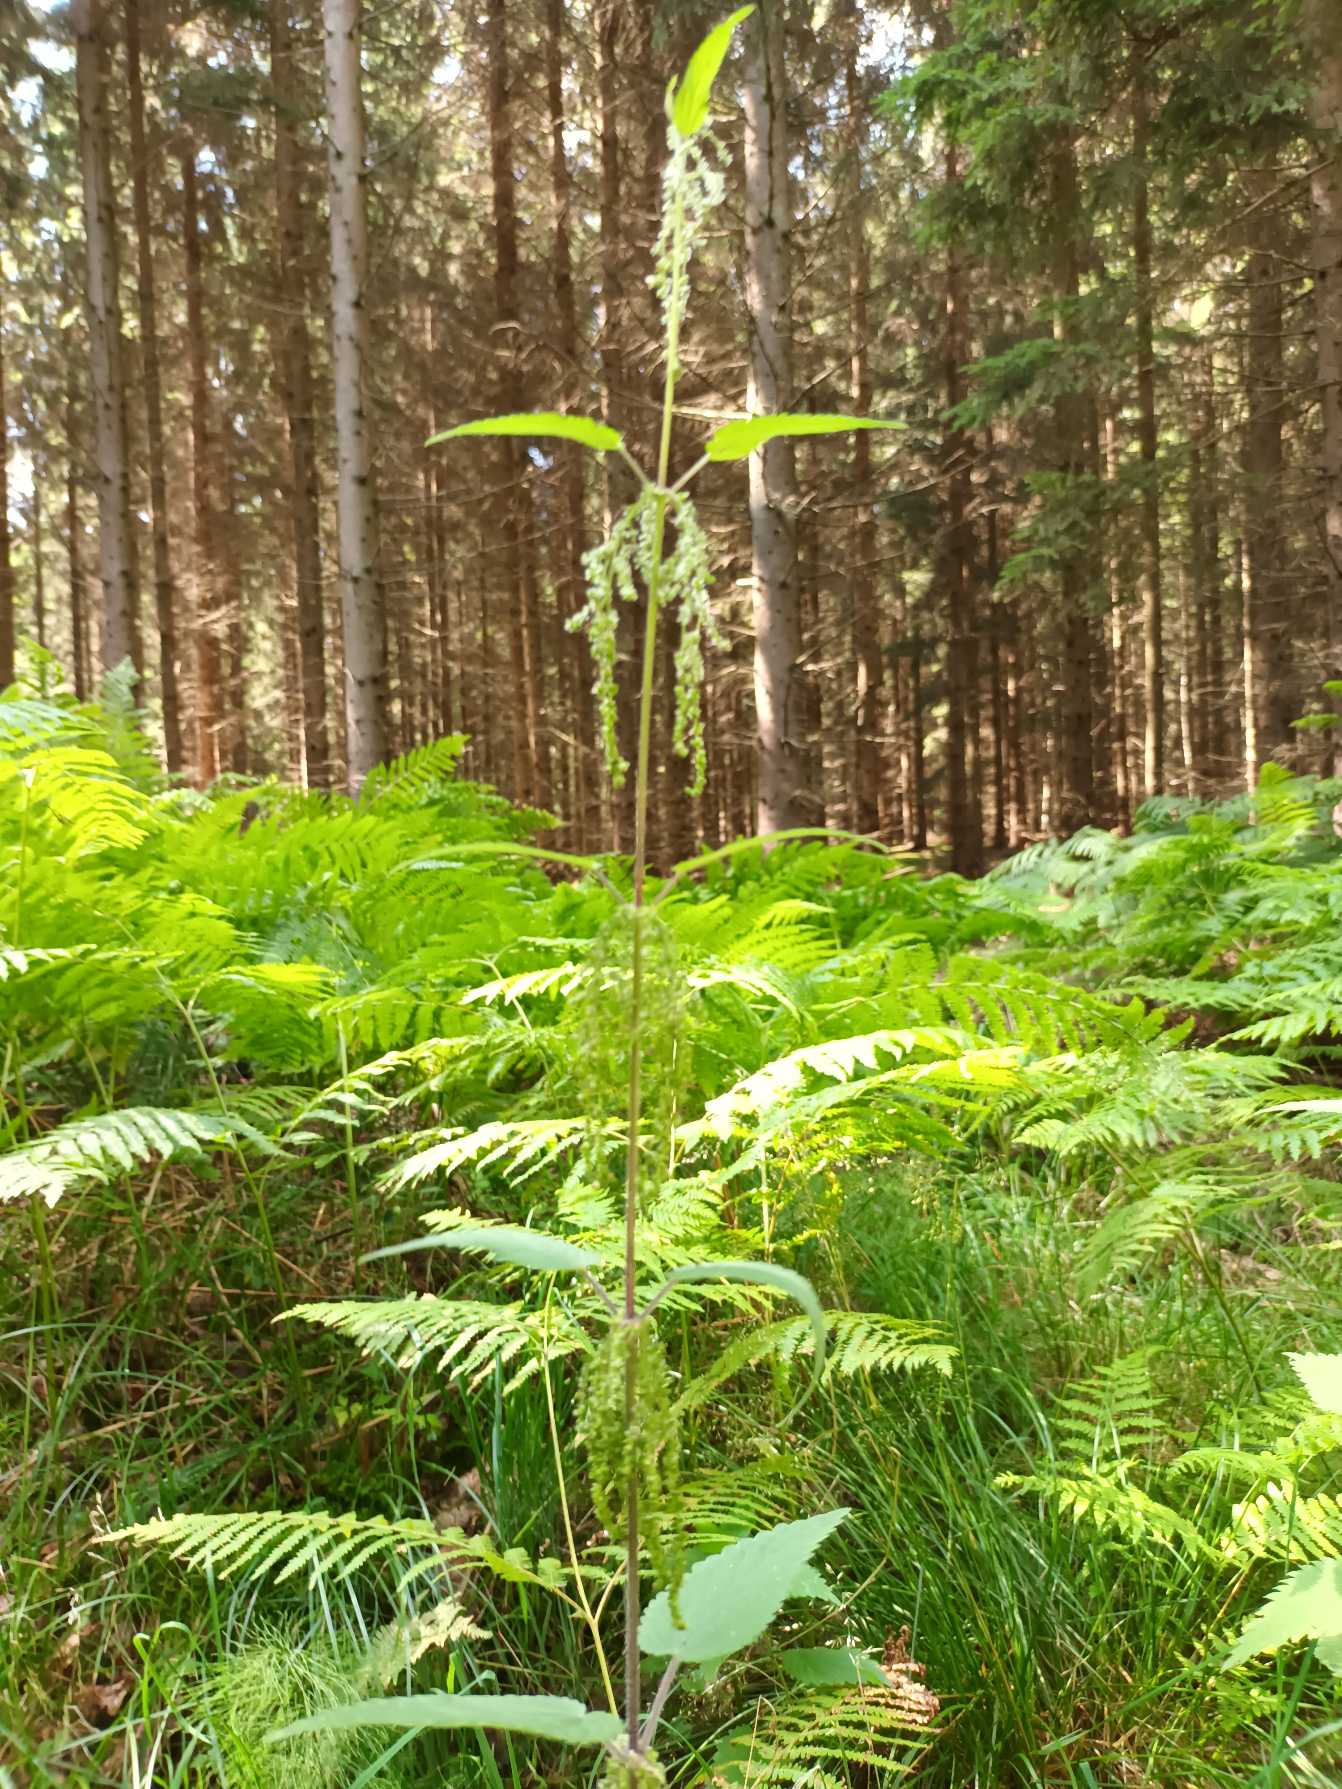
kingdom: Plantae
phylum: Tracheophyta
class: Magnoliopsida
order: Rosales
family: Urticaceae
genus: Urtica
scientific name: Urtica dioica
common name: Stor nælde
